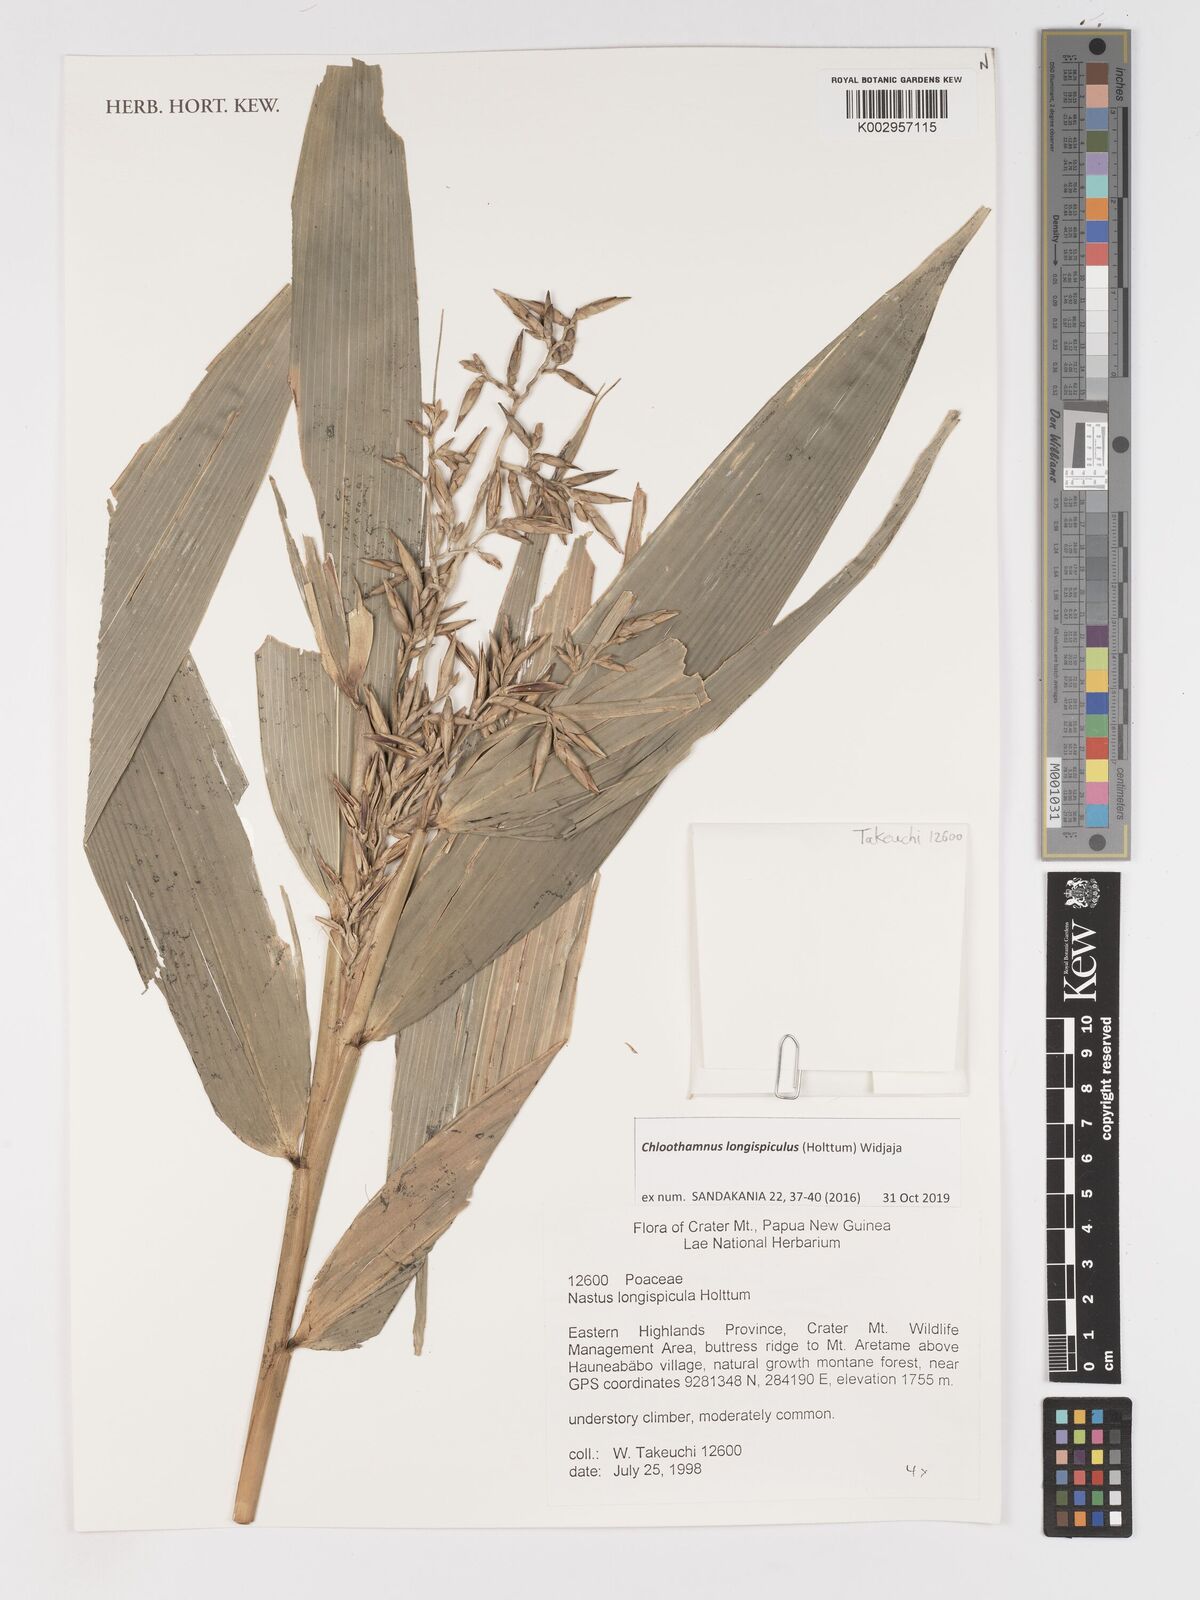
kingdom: Plantae
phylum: Tracheophyta
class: Liliopsida
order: Poales
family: Poaceae
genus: Chloothamnus
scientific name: Chloothamnus longispiculus
